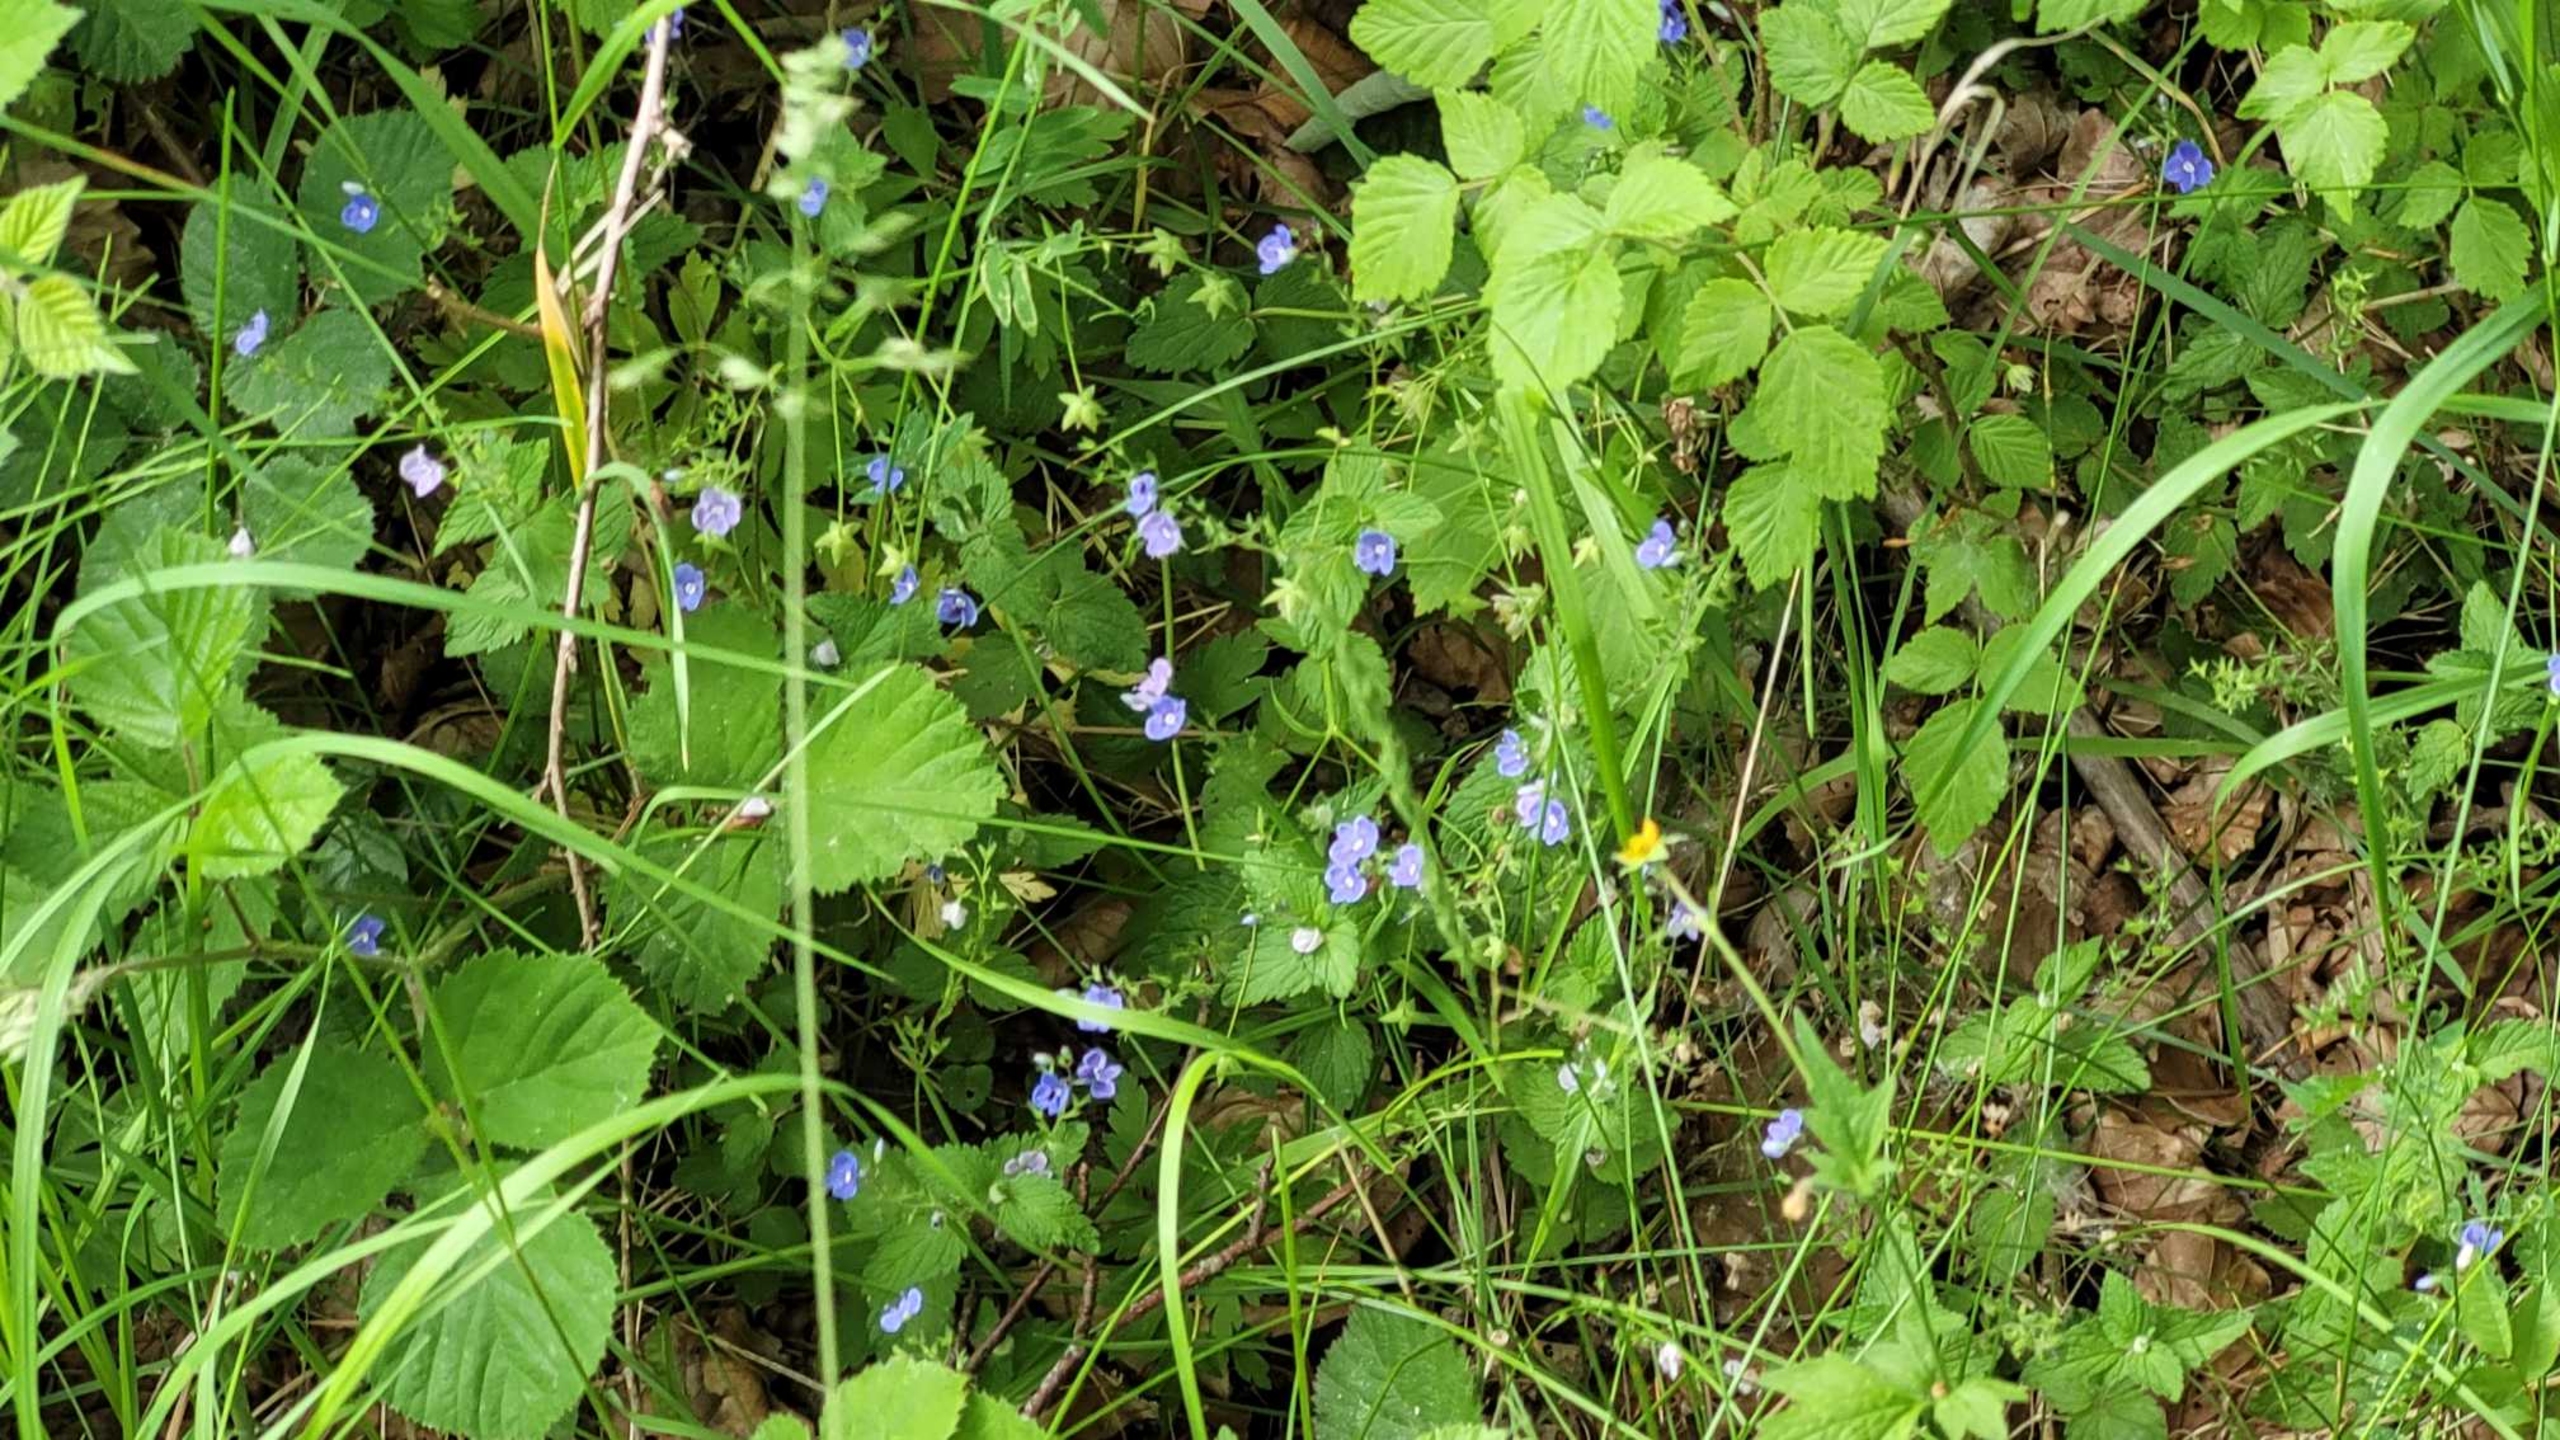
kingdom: Plantae
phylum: Tracheophyta
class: Magnoliopsida
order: Lamiales
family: Plantaginaceae
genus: Veronica
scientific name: Veronica chamaedrys
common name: Tveskægget ærenpris
